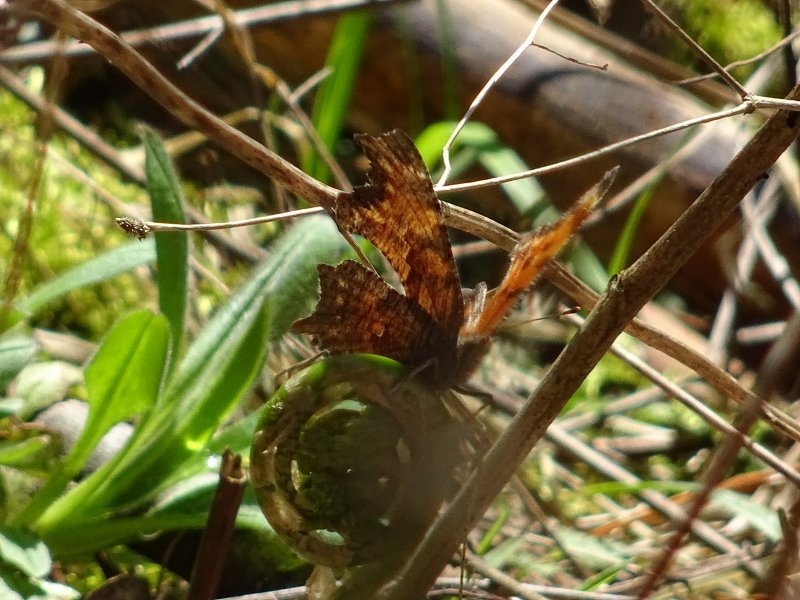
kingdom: Animalia
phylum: Arthropoda
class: Insecta
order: Lepidoptera
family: Nymphalidae
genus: Polygonia
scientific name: Polygonia progne
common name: Gray Comma
